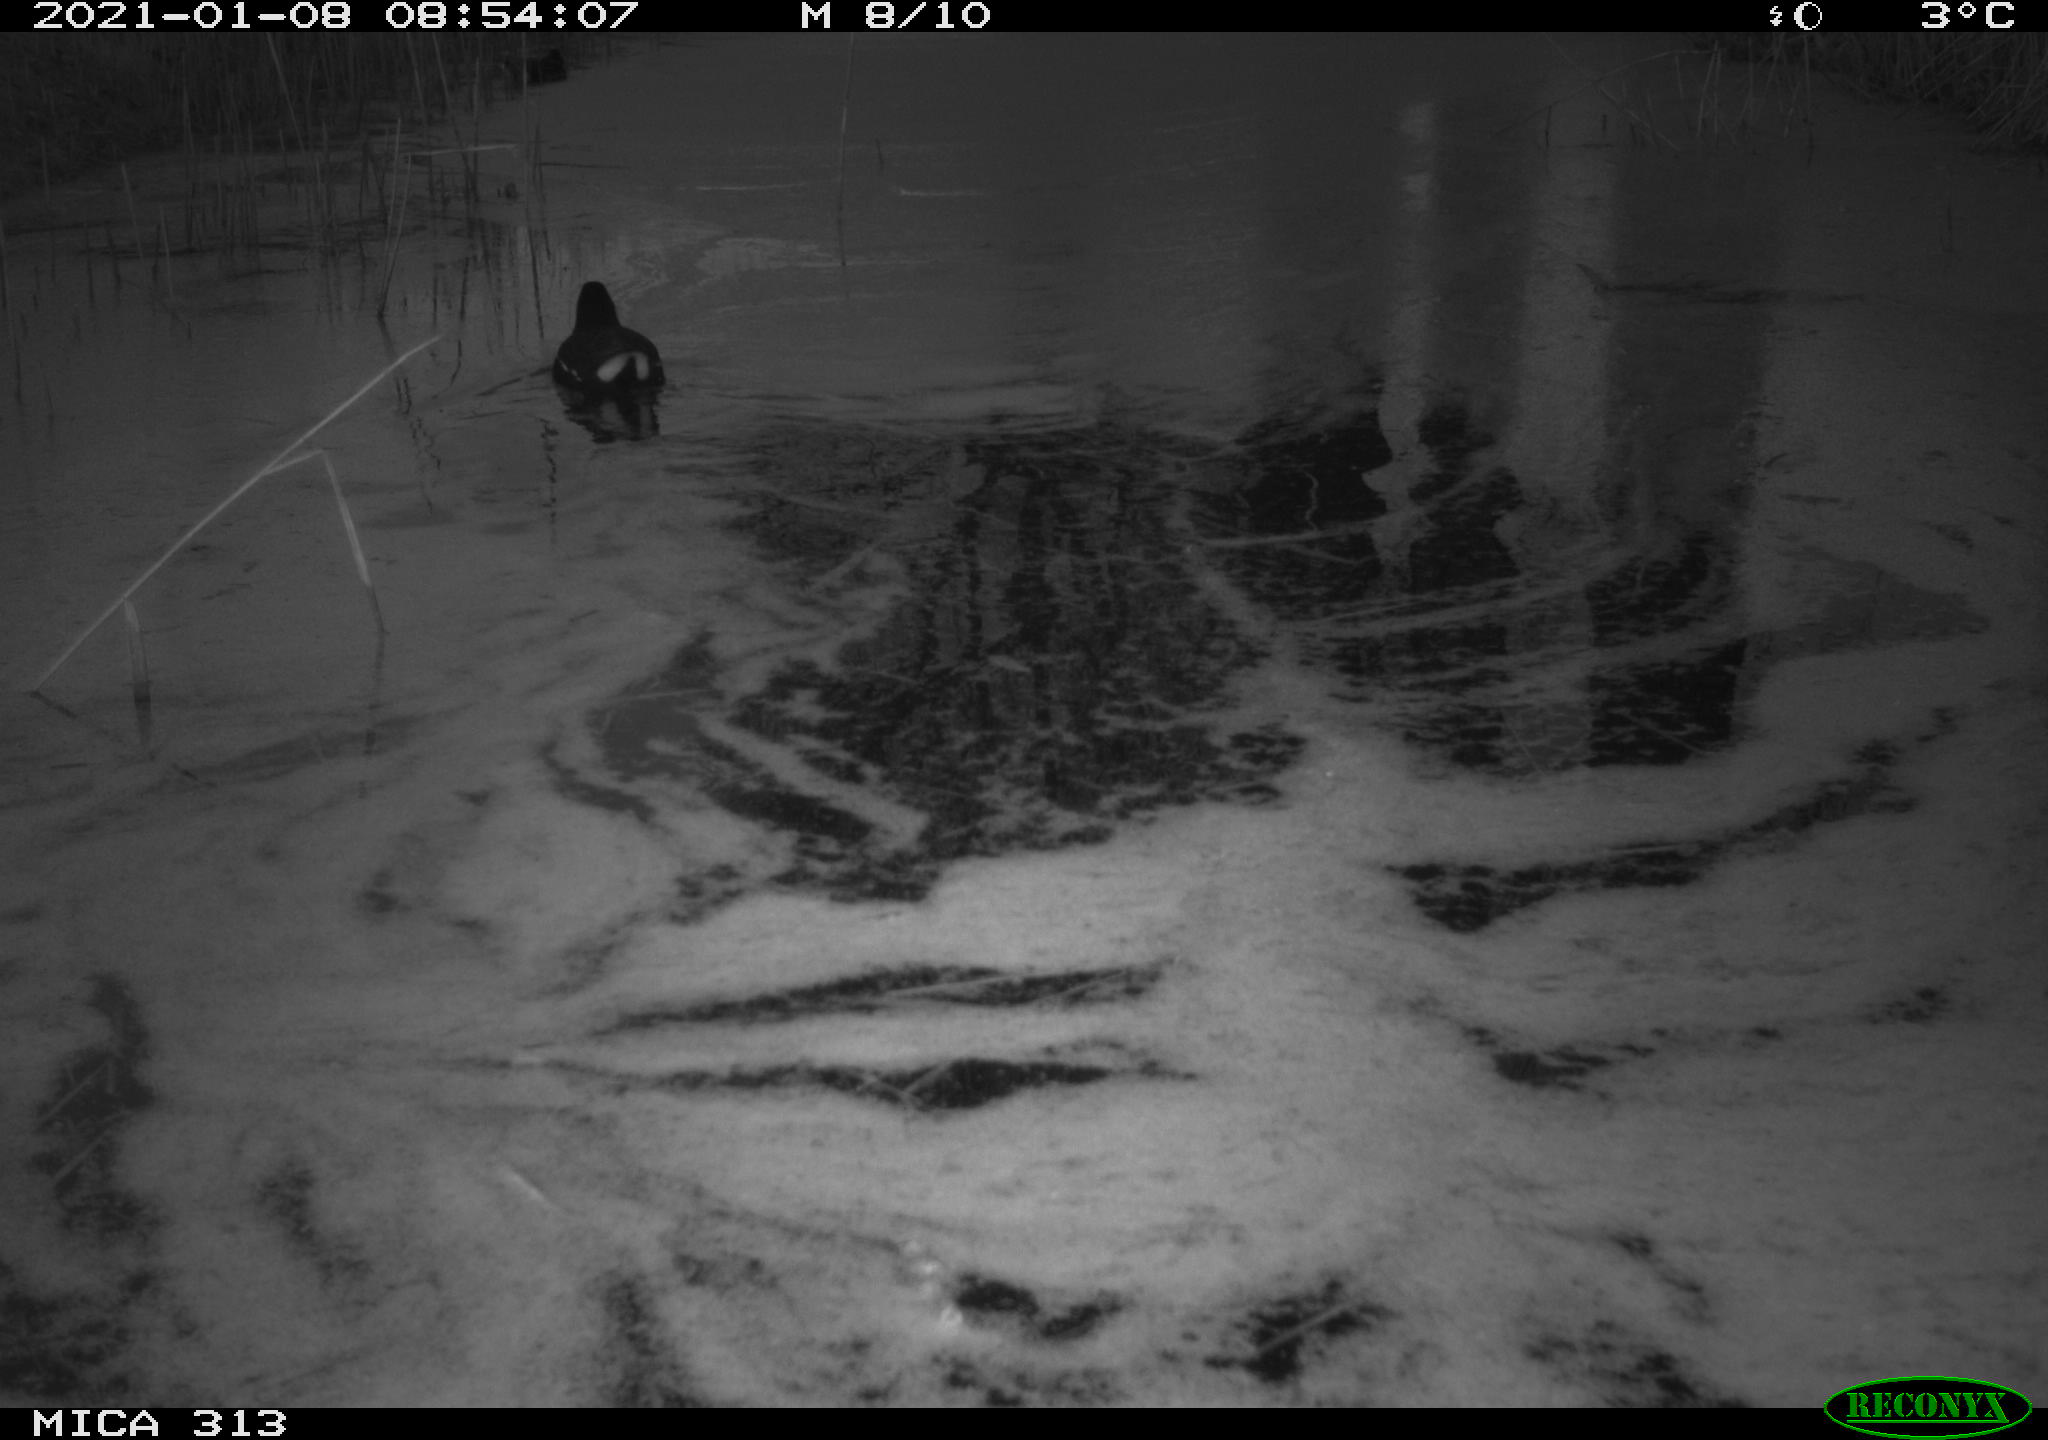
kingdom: Animalia
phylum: Chordata
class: Aves
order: Gruiformes
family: Rallidae
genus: Gallinula
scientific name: Gallinula chloropus
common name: Common moorhen
